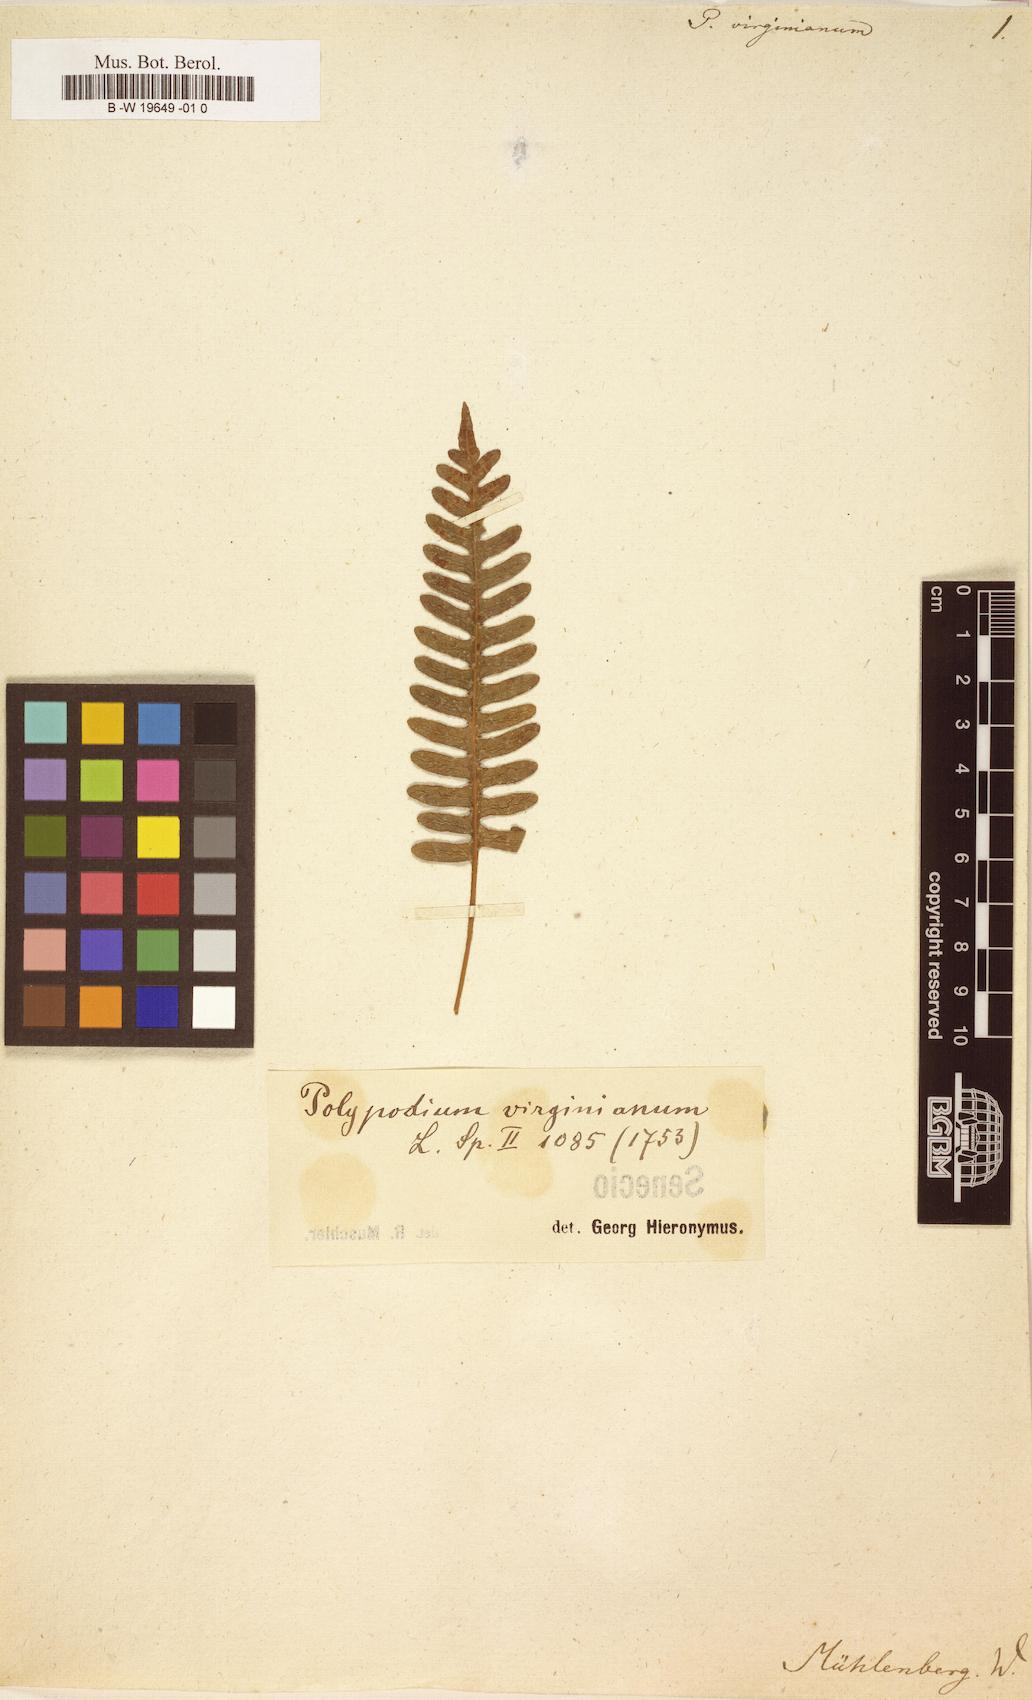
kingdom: Plantae
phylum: Tracheophyta
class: Polypodiopsida
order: Polypodiales
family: Polypodiaceae
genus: Polypodium
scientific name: Polypodium virginianum
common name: American wall fern
